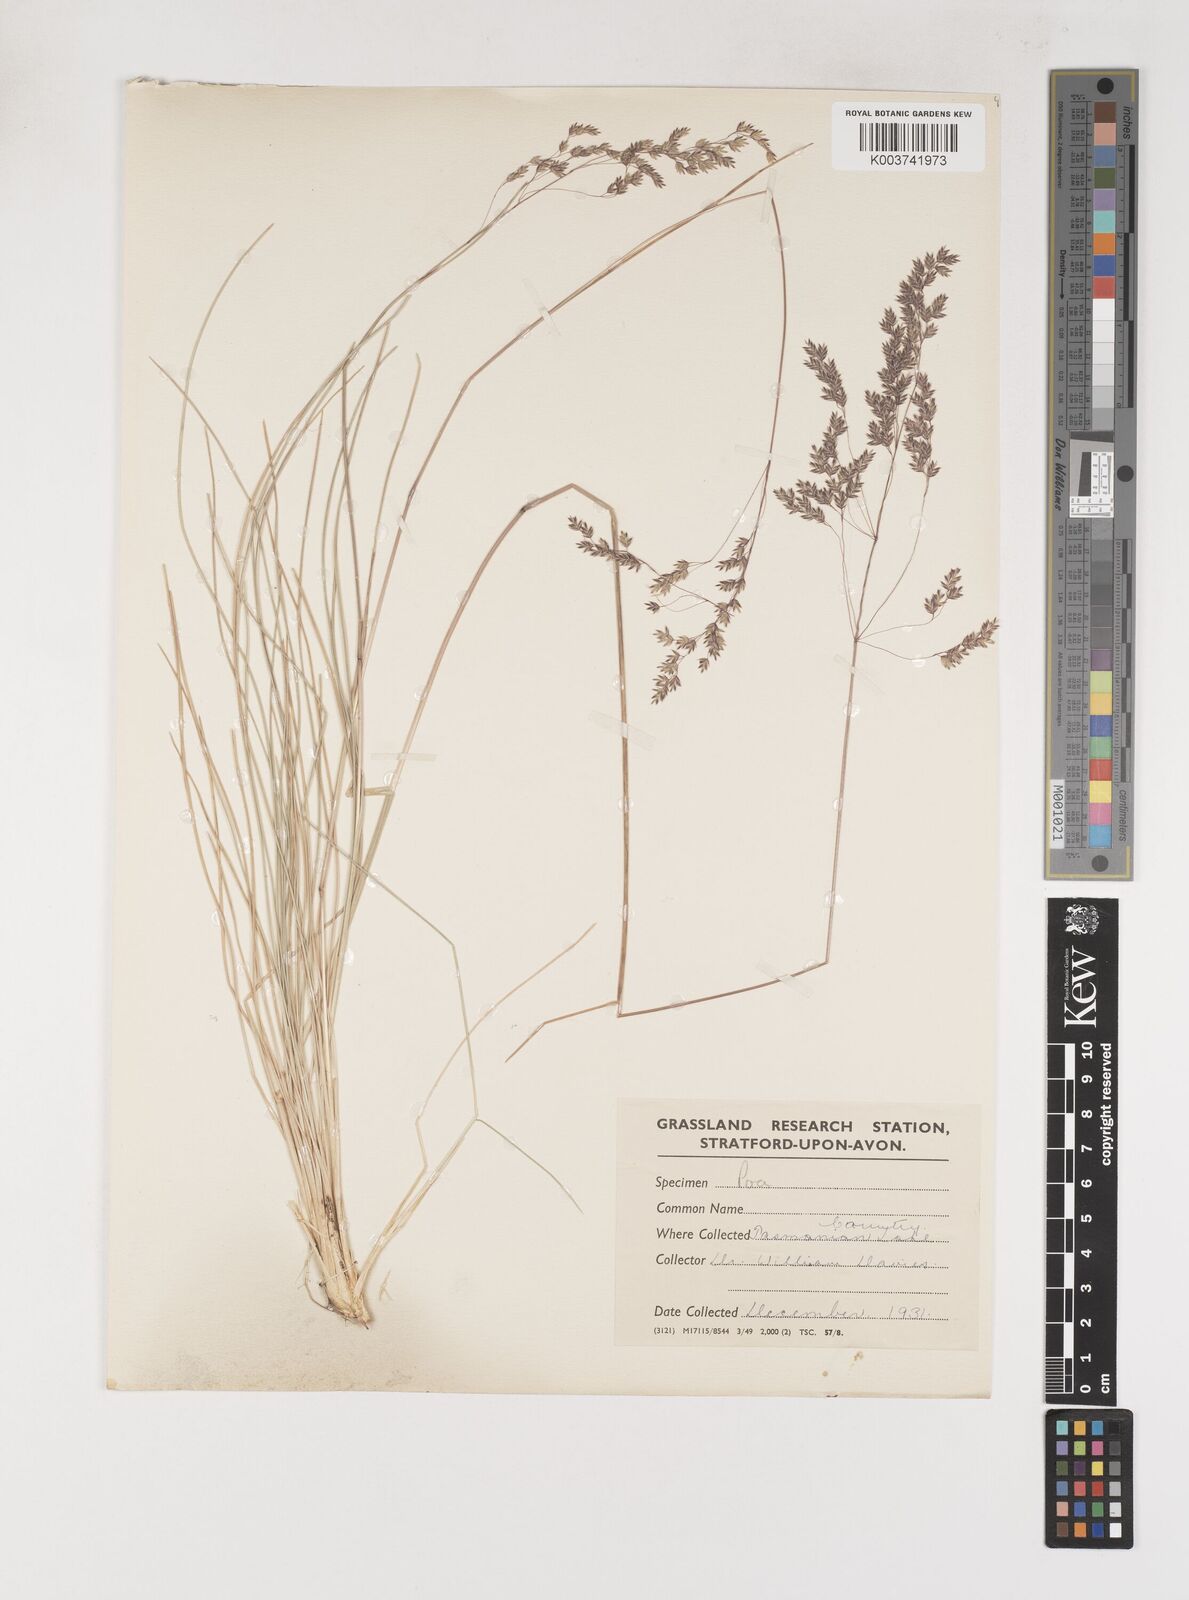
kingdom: Plantae
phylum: Tracheophyta
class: Liliopsida
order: Poales
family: Poaceae
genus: Poa
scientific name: Poa tenera
